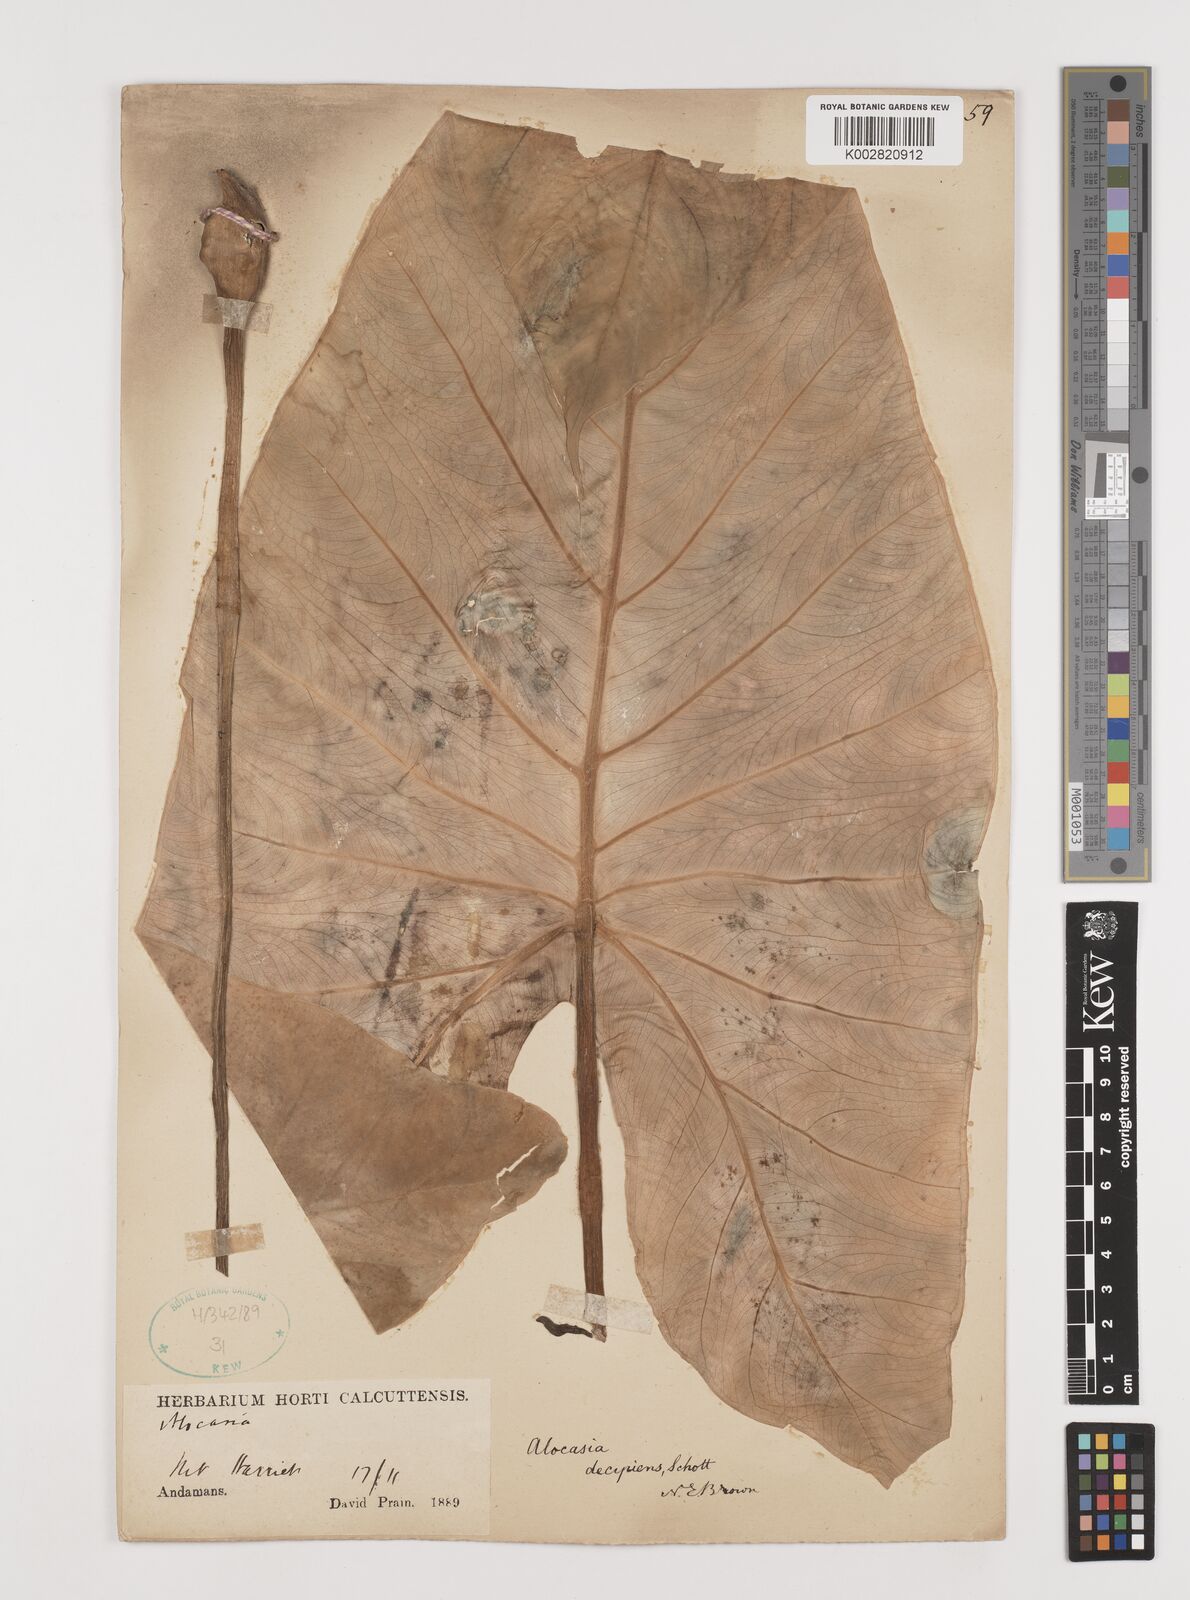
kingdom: Plantae
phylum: Tracheophyta
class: Liliopsida
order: Alismatales
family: Araceae
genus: Alocasia
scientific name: Alocasia decipiens
